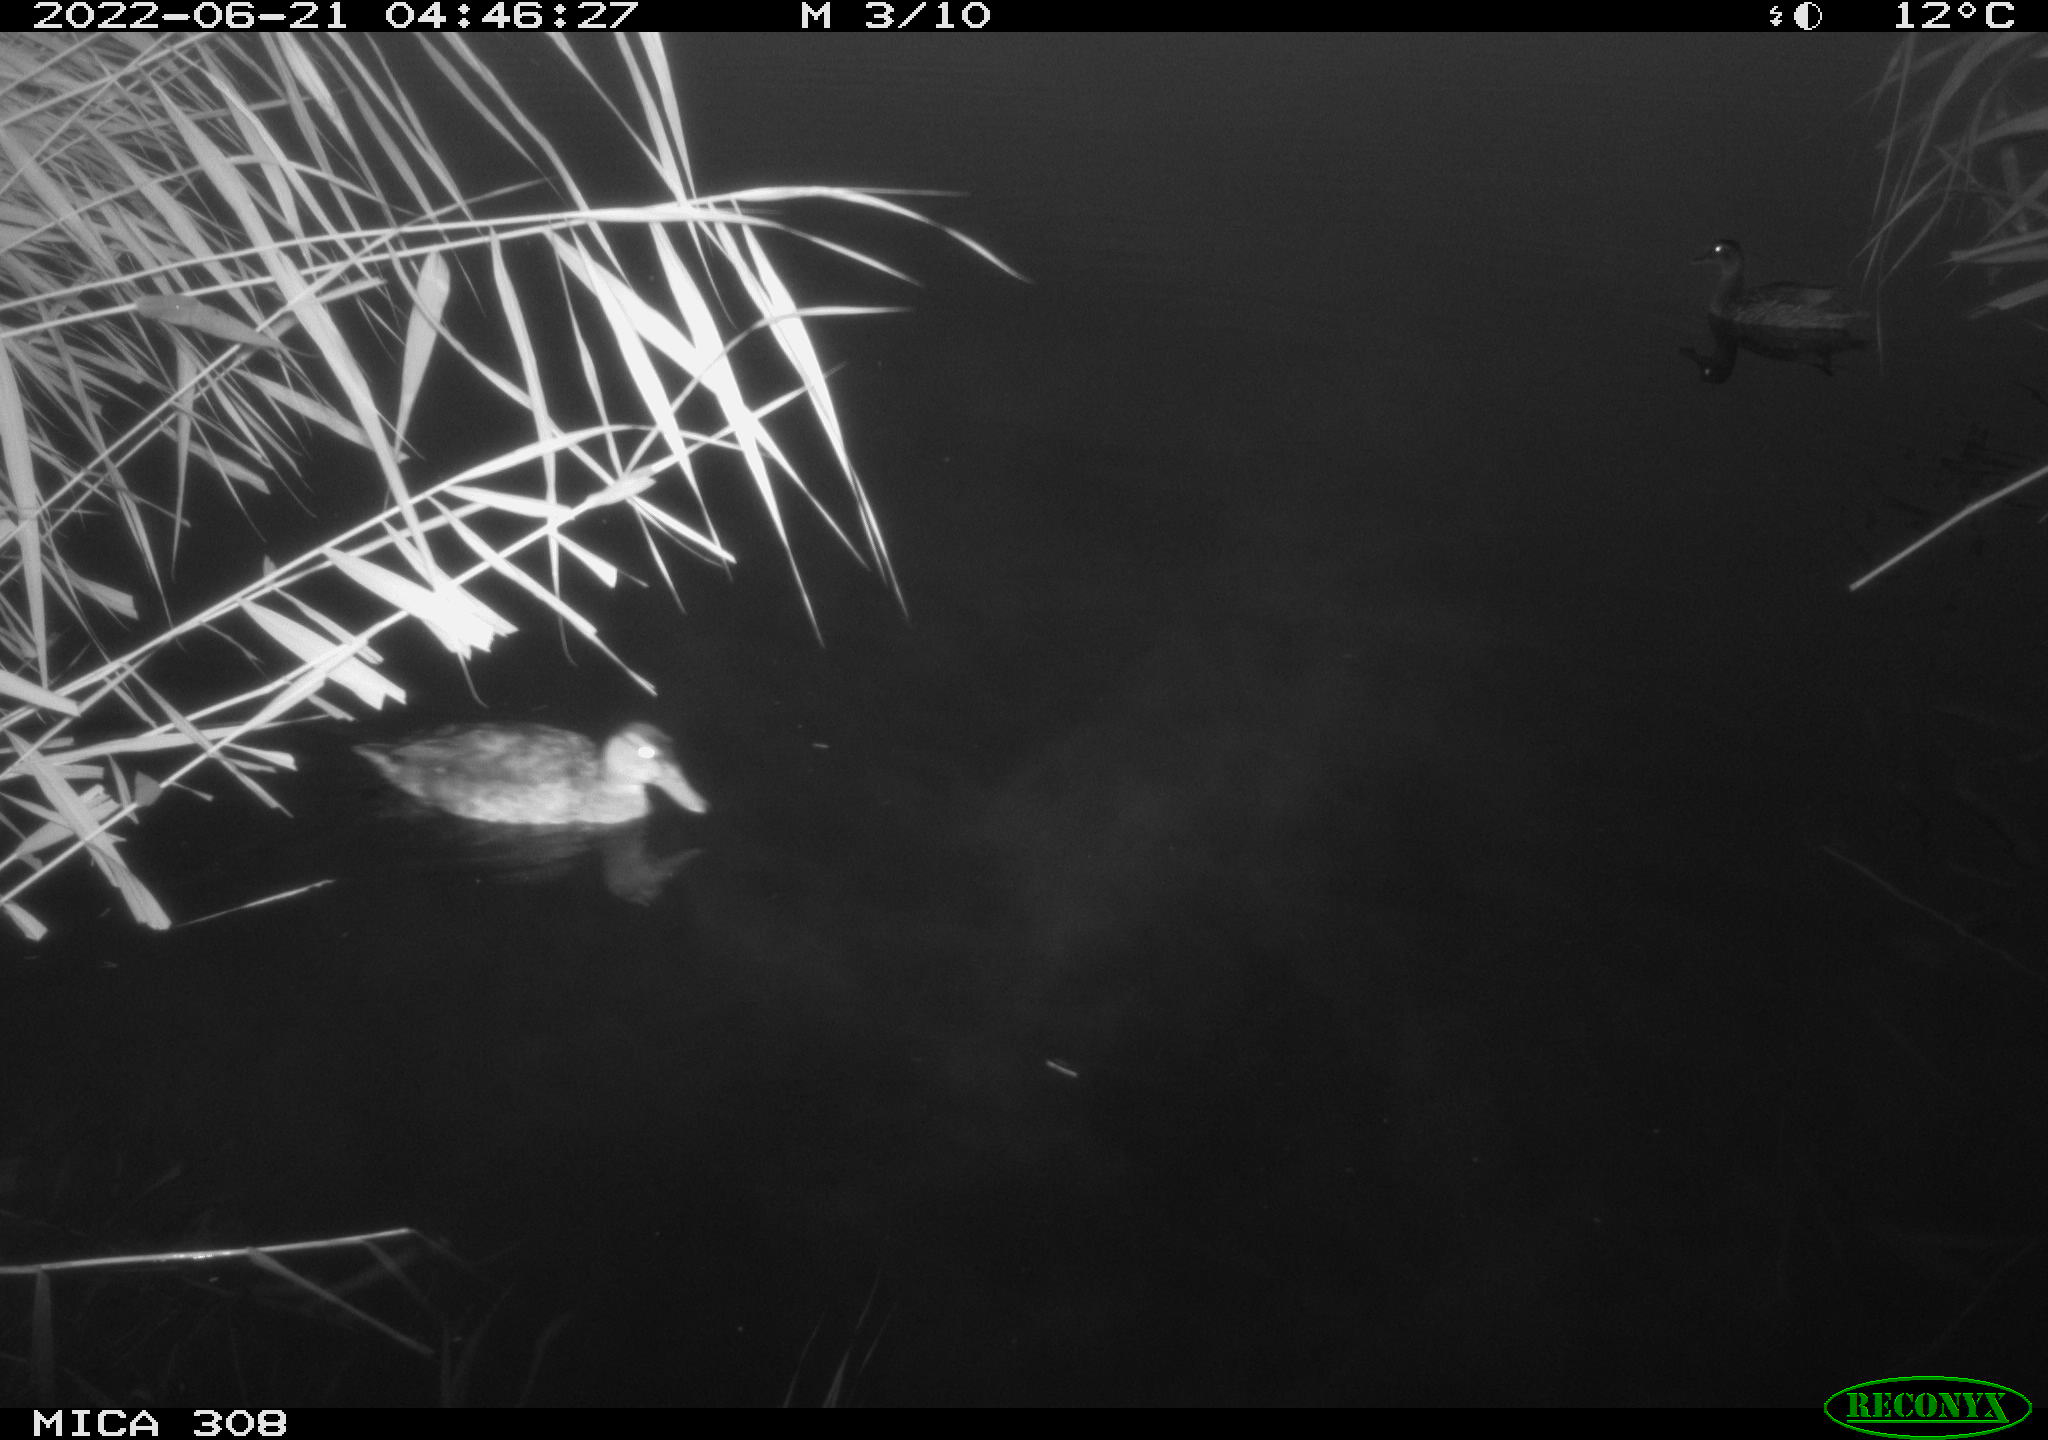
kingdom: Animalia
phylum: Chordata
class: Aves
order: Anseriformes
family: Anatidae
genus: Anas
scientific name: Anas platyrhynchos
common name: Mallard
